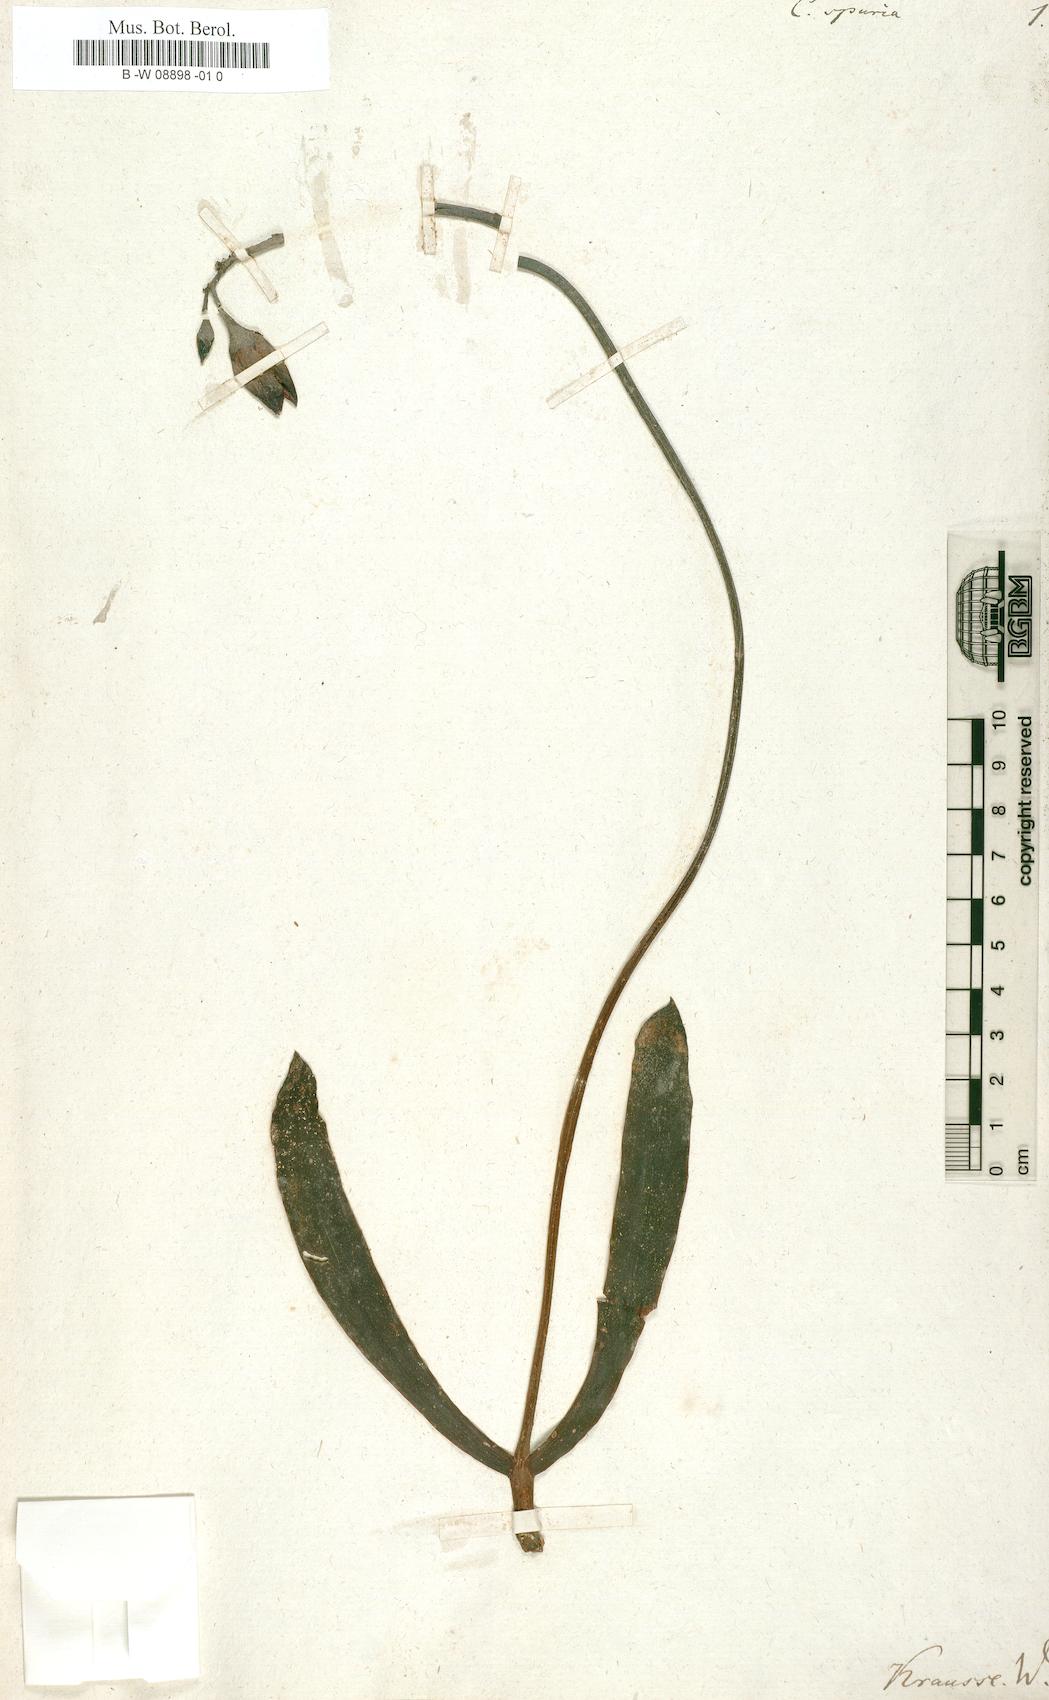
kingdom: Plantae
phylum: Tracheophyta
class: Magnoliopsida
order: Saxifragales
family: Crassulaceae
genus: Cotyledon
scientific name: Cotyledon orbiculata
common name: Pig's ear
